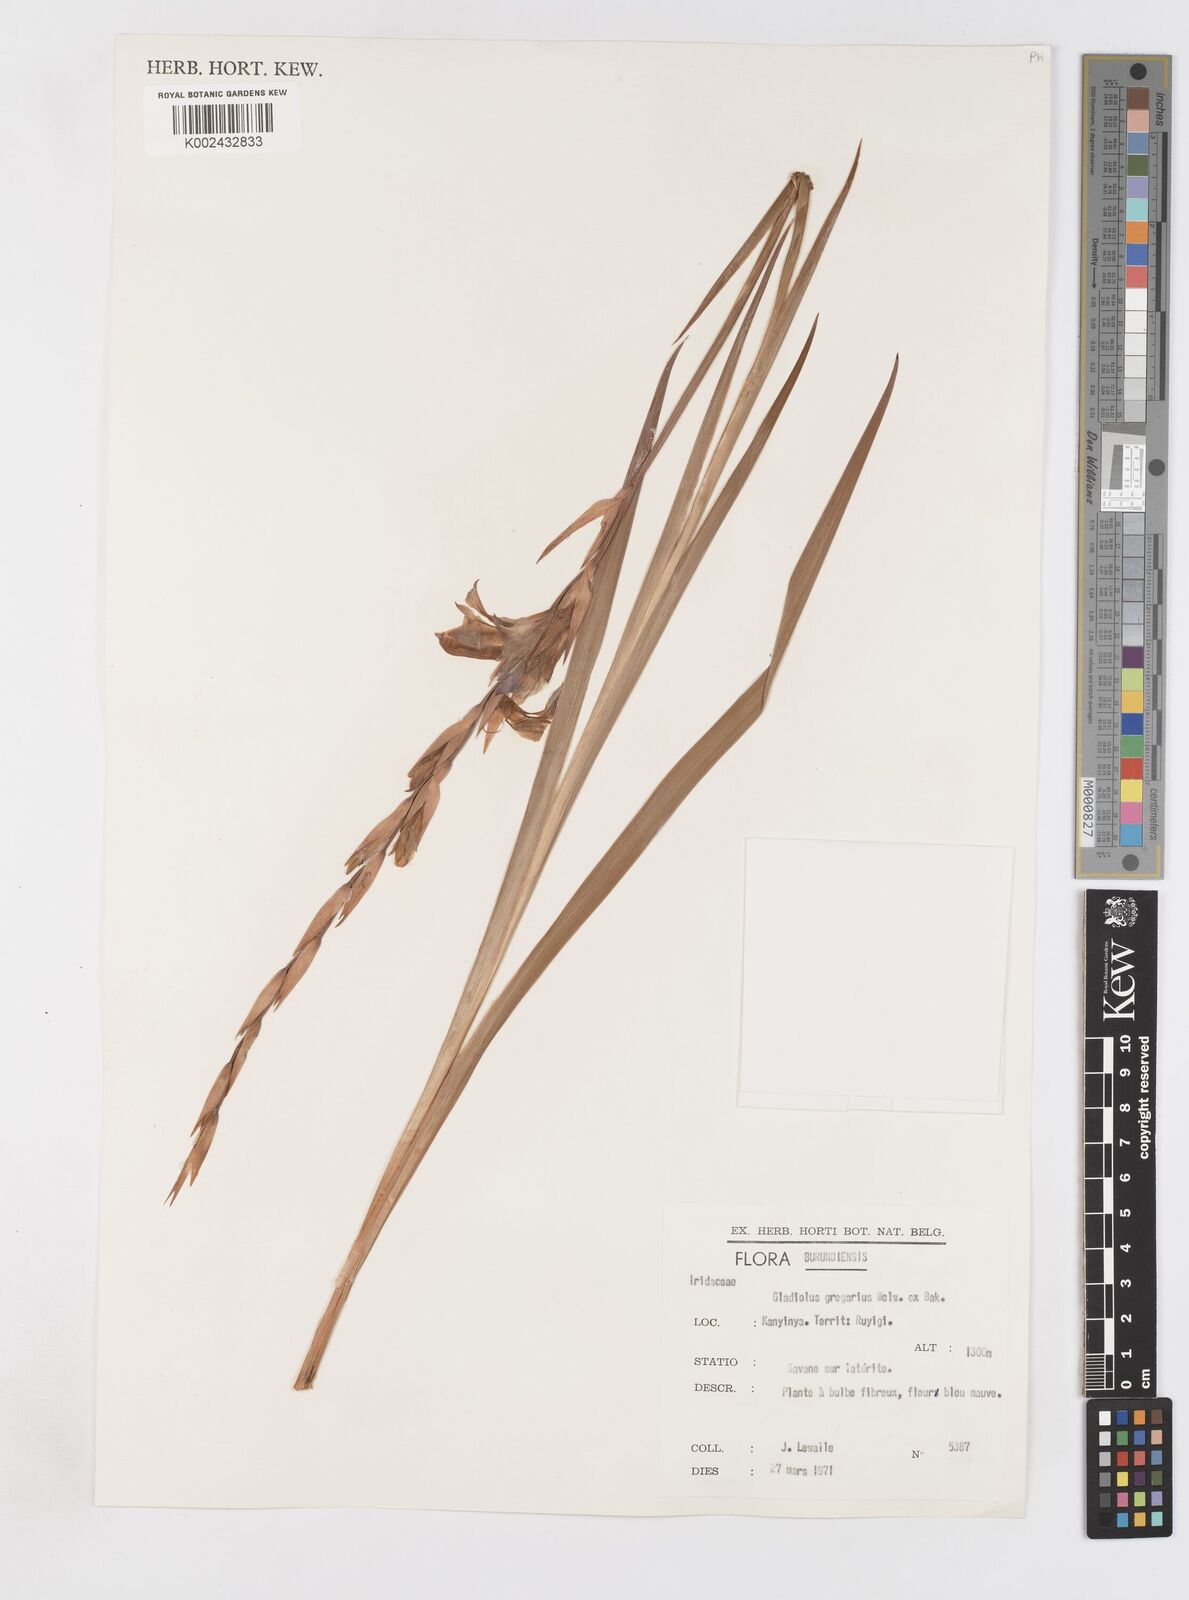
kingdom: Plantae
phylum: Tracheophyta
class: Liliopsida
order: Asparagales
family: Iridaceae
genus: Gladiolus
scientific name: Gladiolus gregarius
